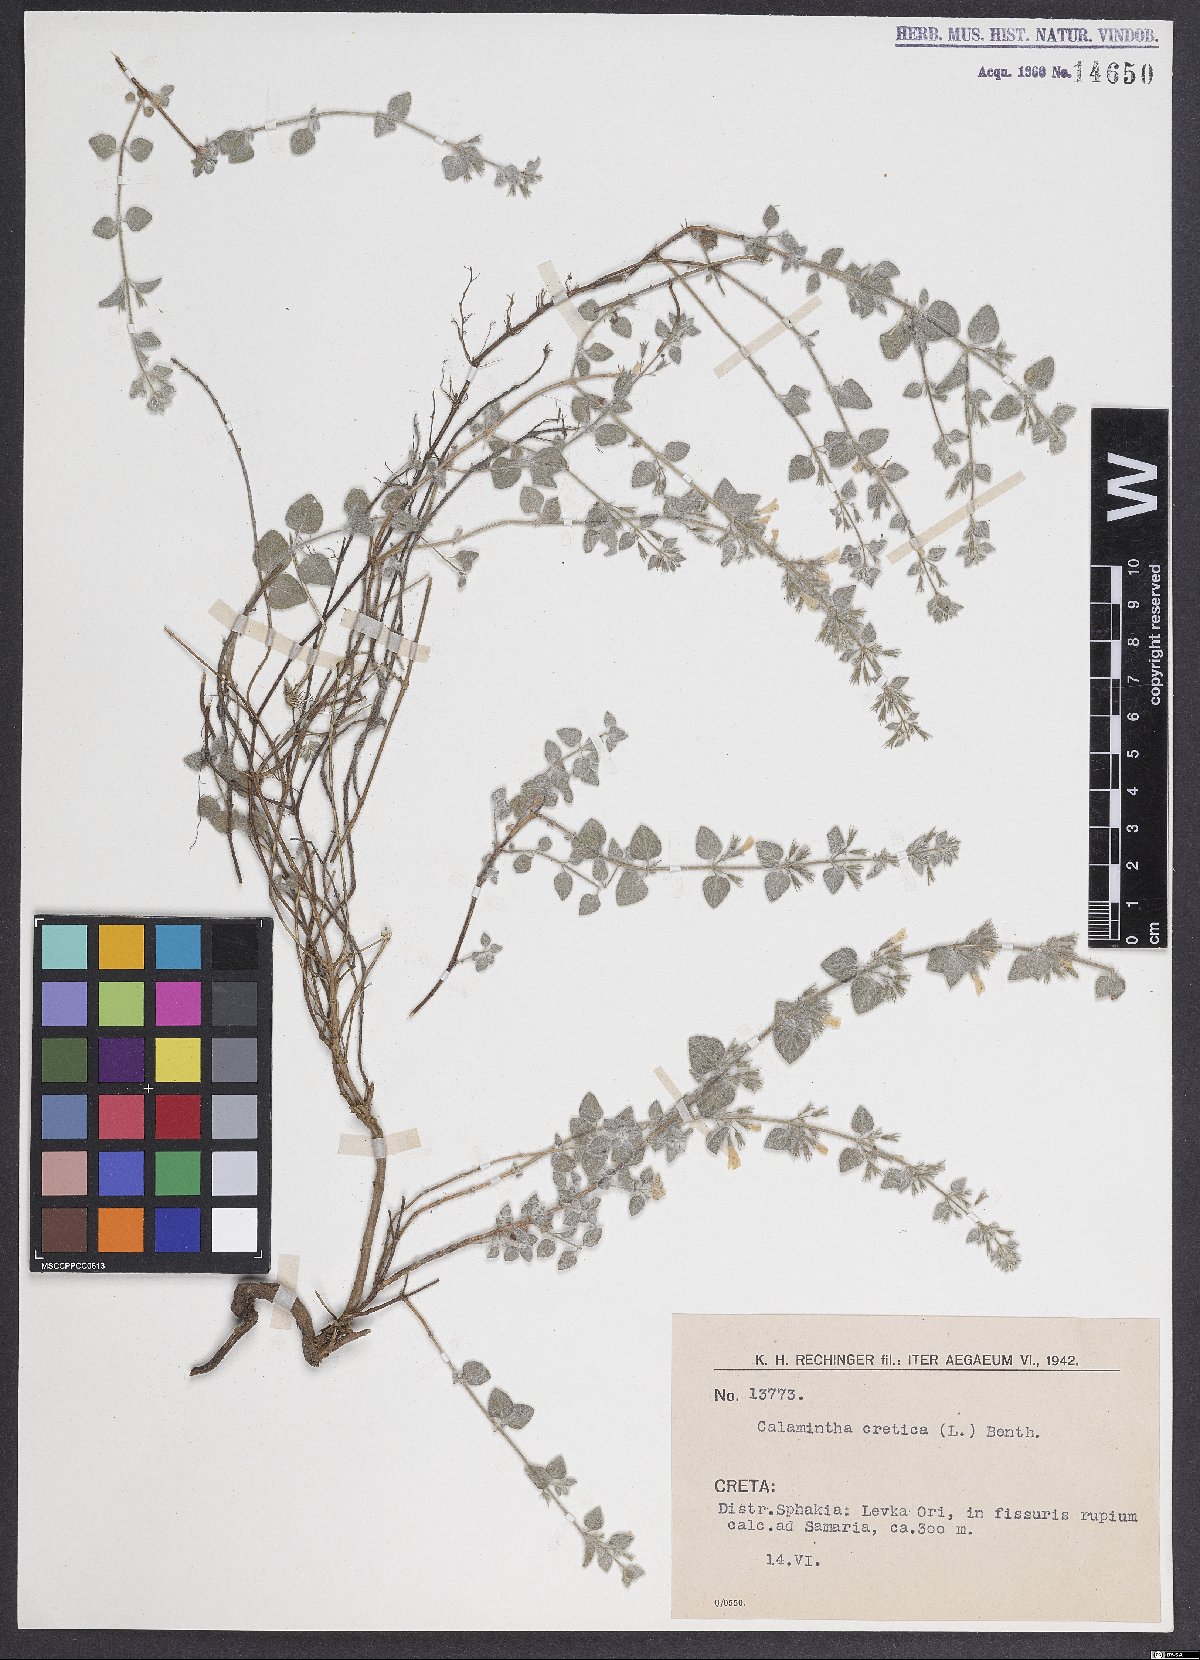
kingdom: Plantae
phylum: Tracheophyta
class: Magnoliopsida
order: Lamiales
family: Lamiaceae
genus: Clinopodium
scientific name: Clinopodium creticum
